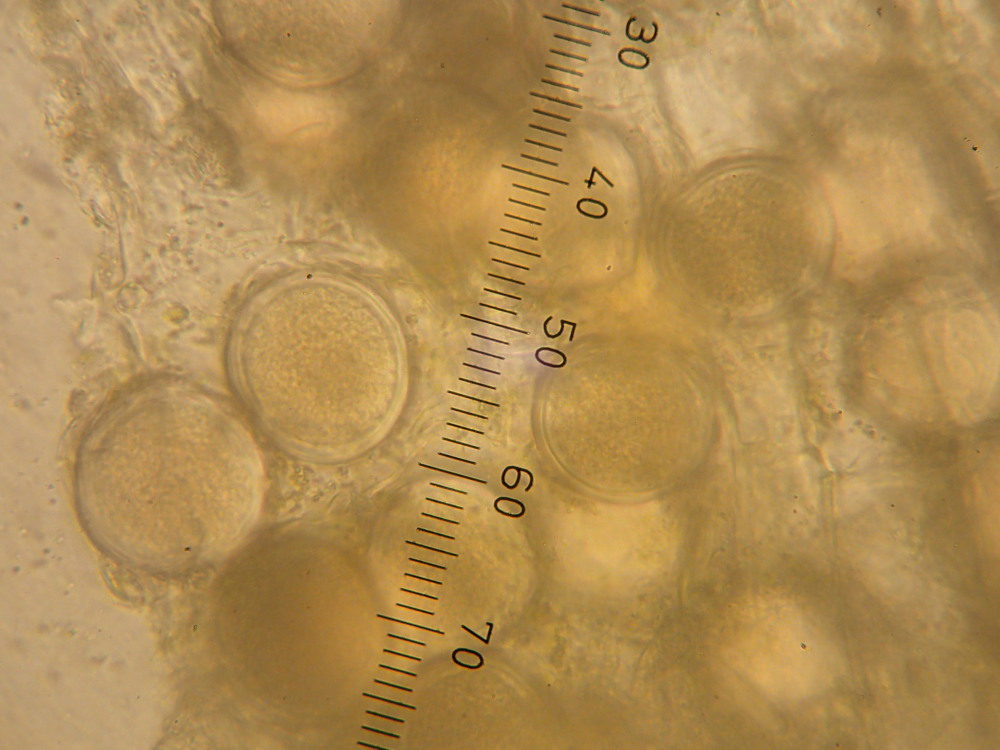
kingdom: Fungi
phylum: Ascomycota
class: Taphrinomycetes
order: Taphrinales
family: Taphrinaceae
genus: Protomyces
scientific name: Protomyces macrosporus
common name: skvalderkål-vablesæk
